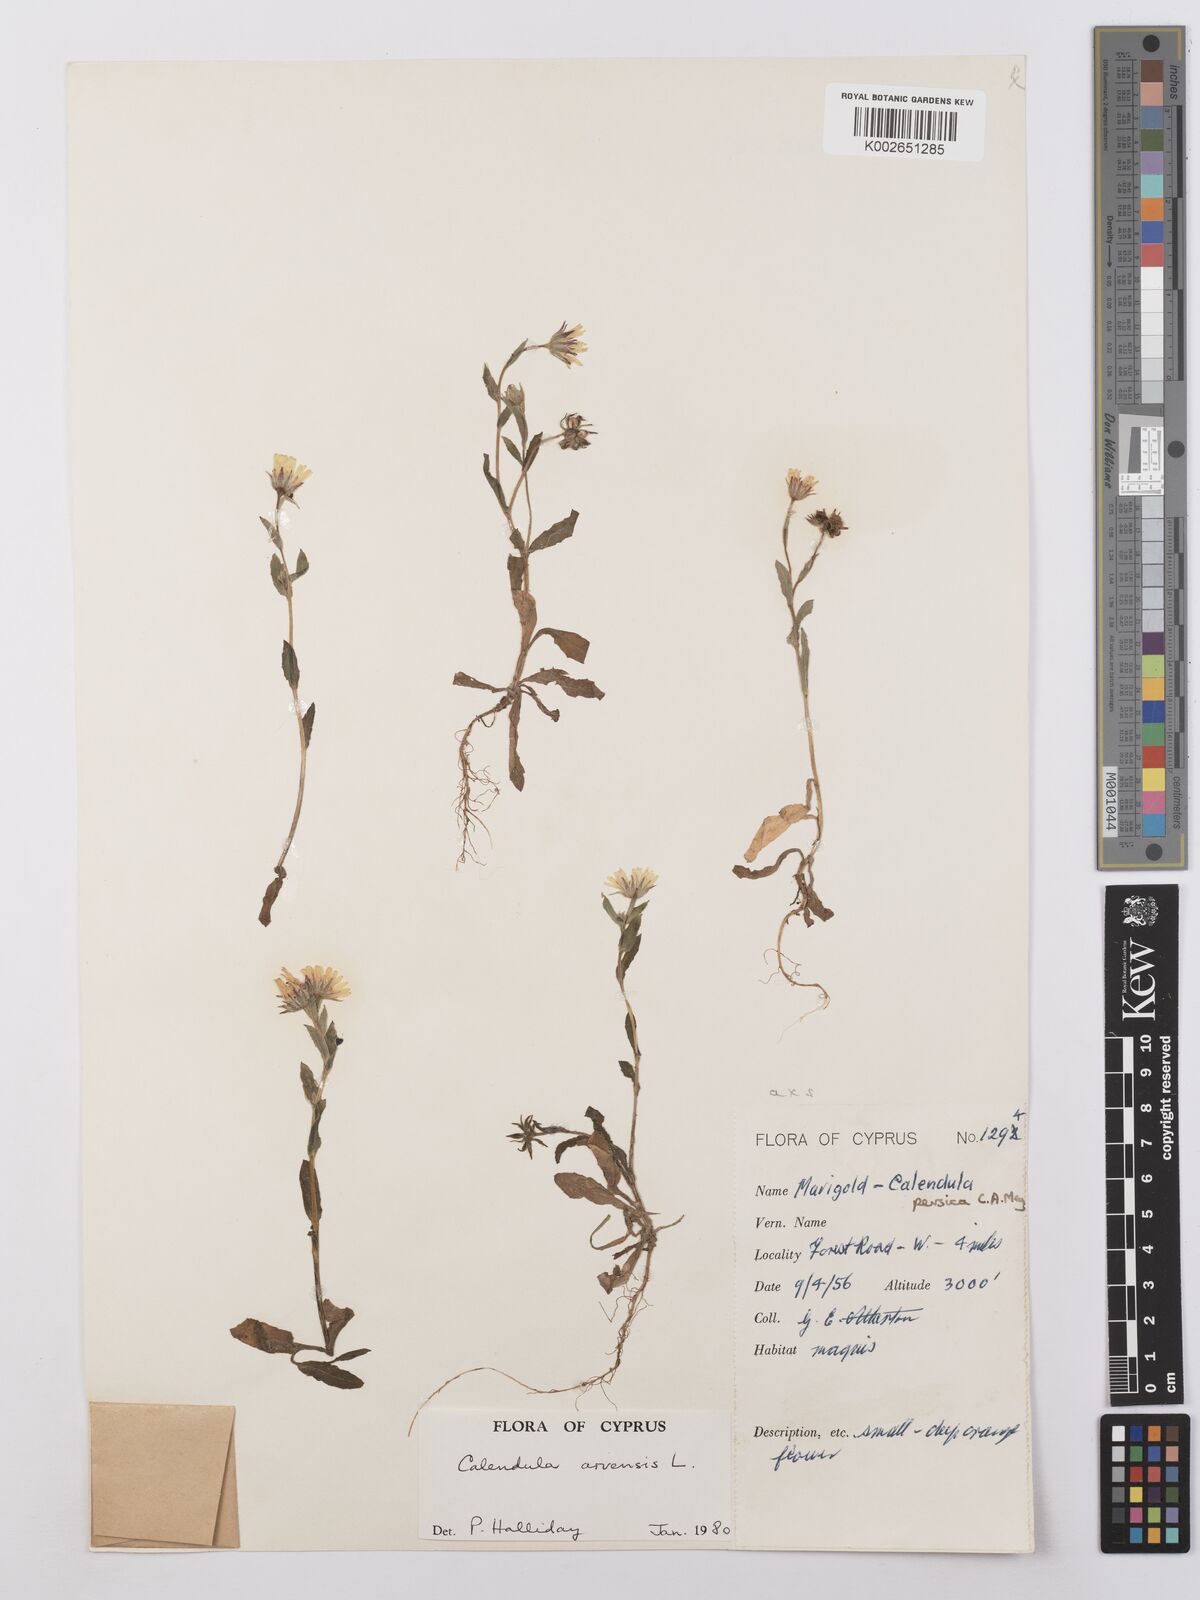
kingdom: Plantae
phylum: Tracheophyta
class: Magnoliopsida
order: Asterales
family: Asteraceae
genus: Calendula
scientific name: Calendula arvensis
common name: Field marigold
